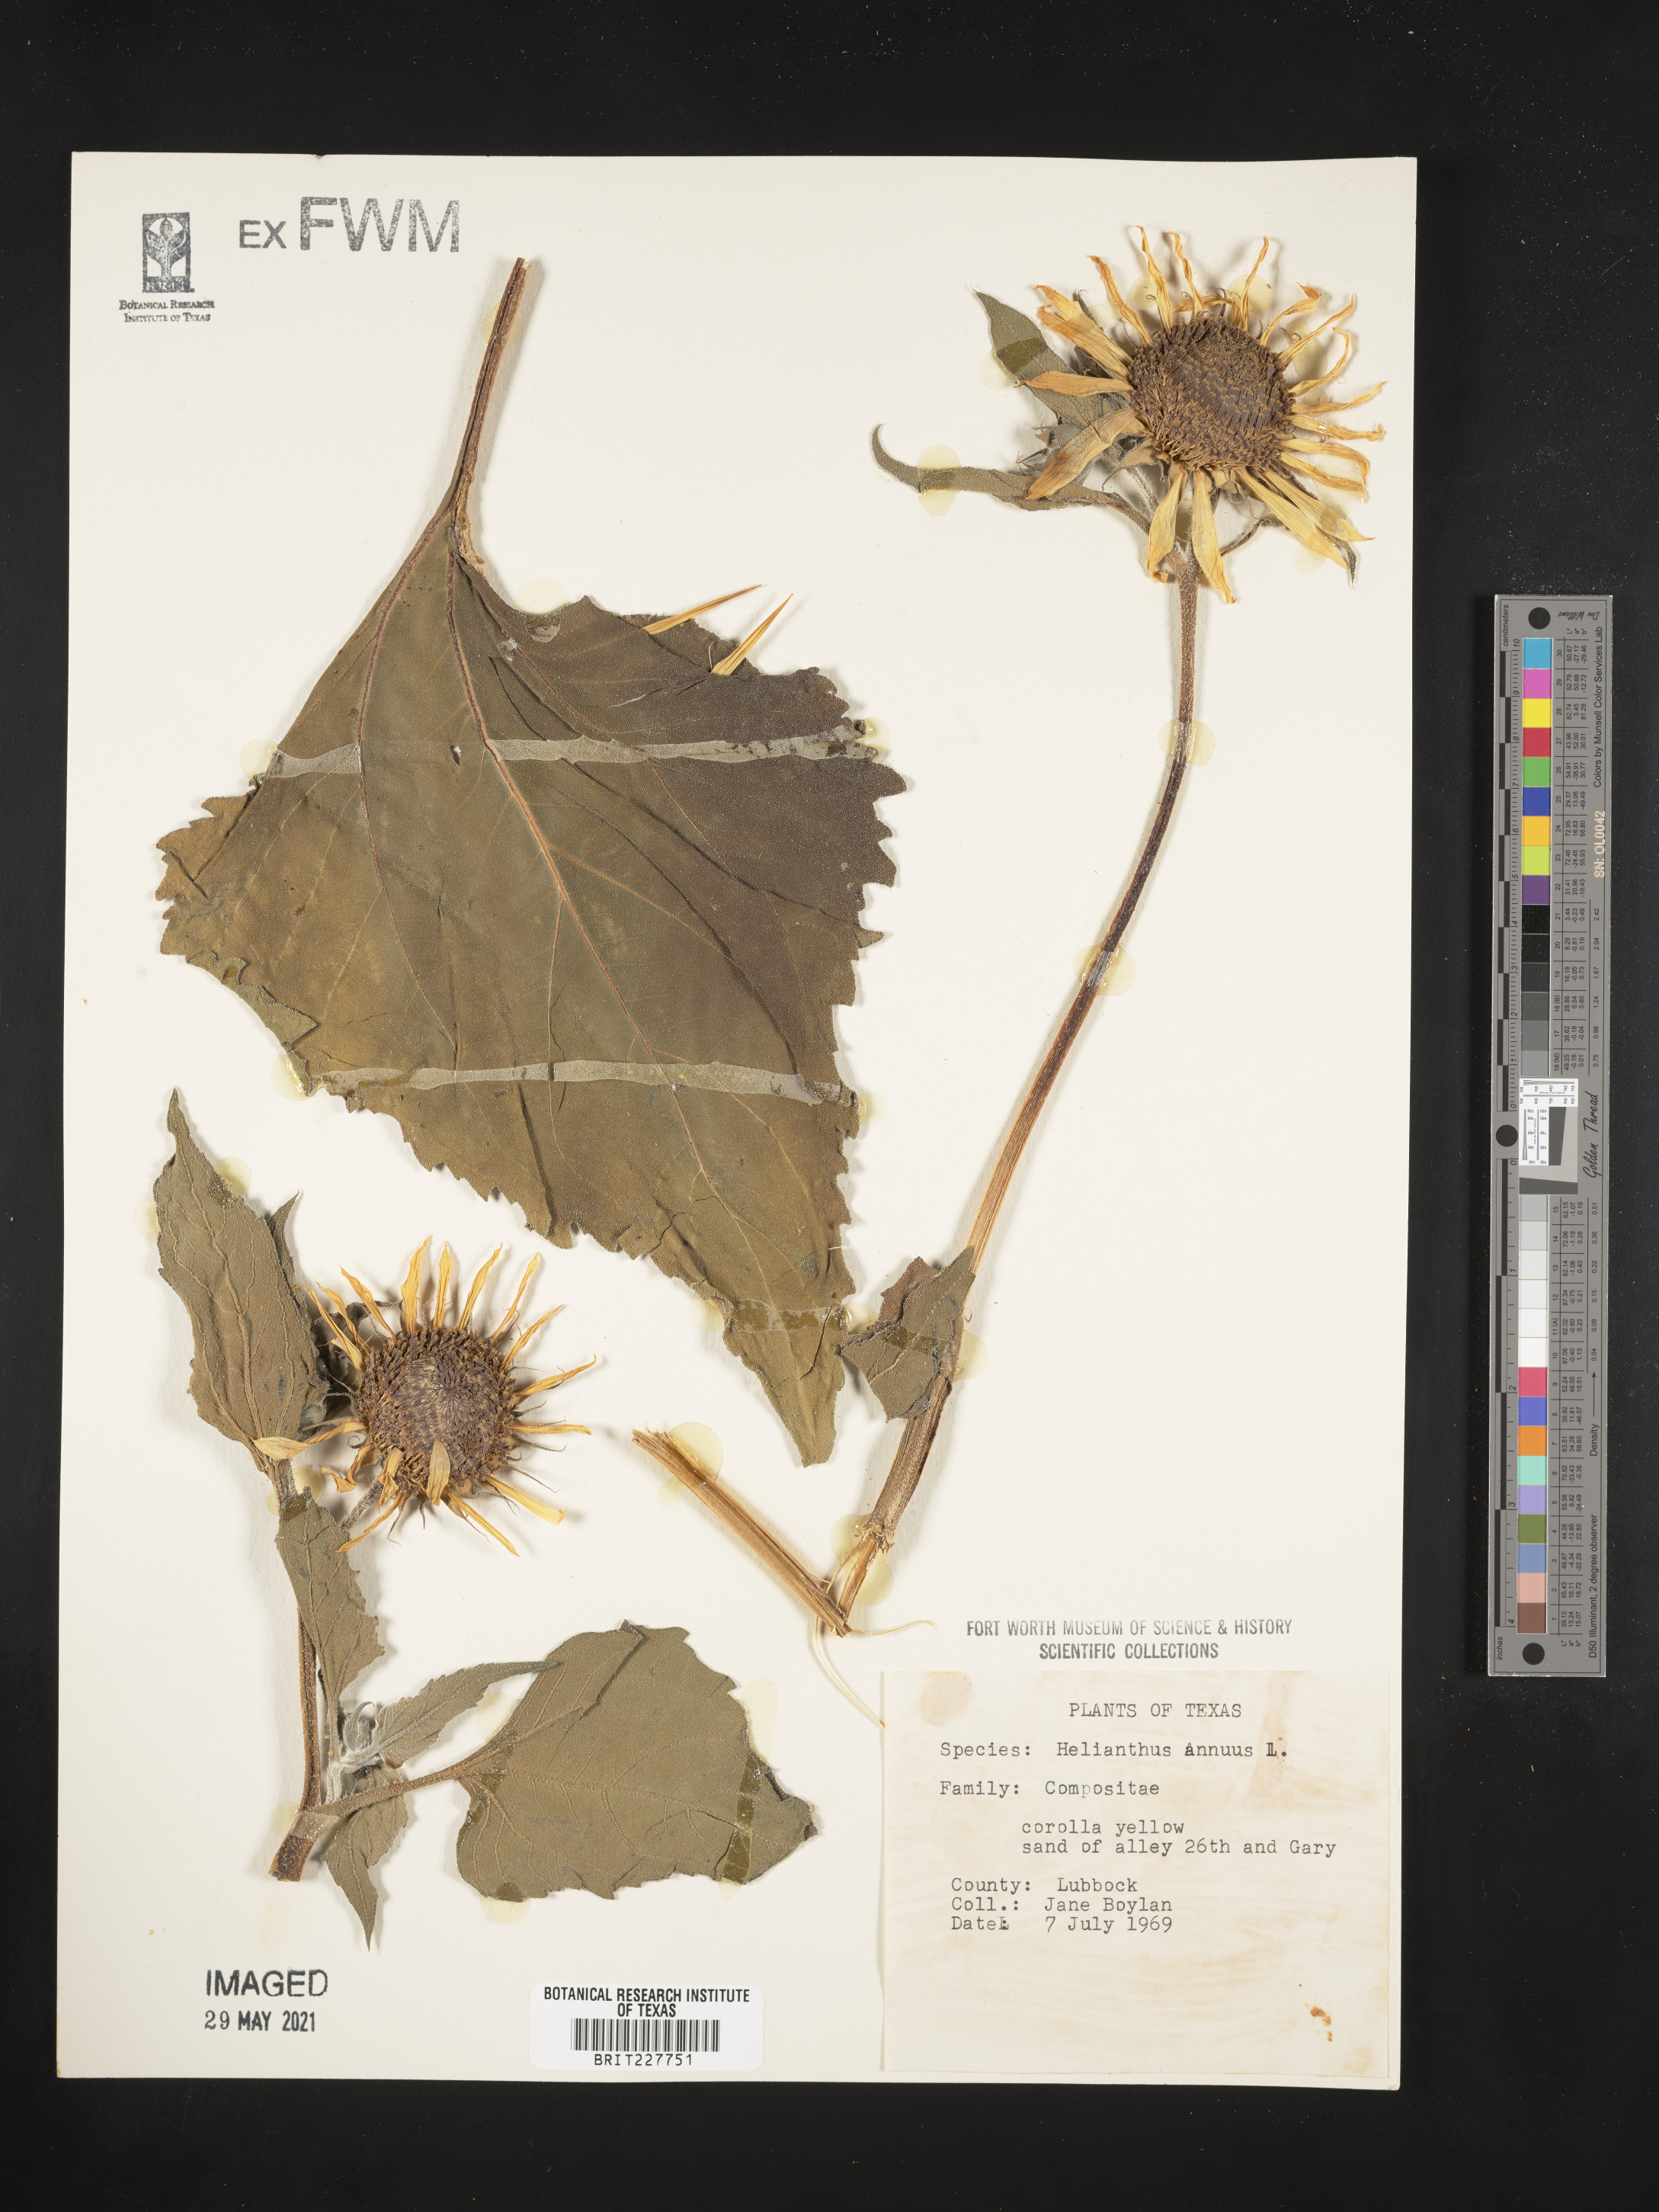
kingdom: Plantae
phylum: Tracheophyta
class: Magnoliopsida
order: Asterales
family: Asteraceae
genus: Helianthus
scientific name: Helianthus annuus
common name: Sunflower
